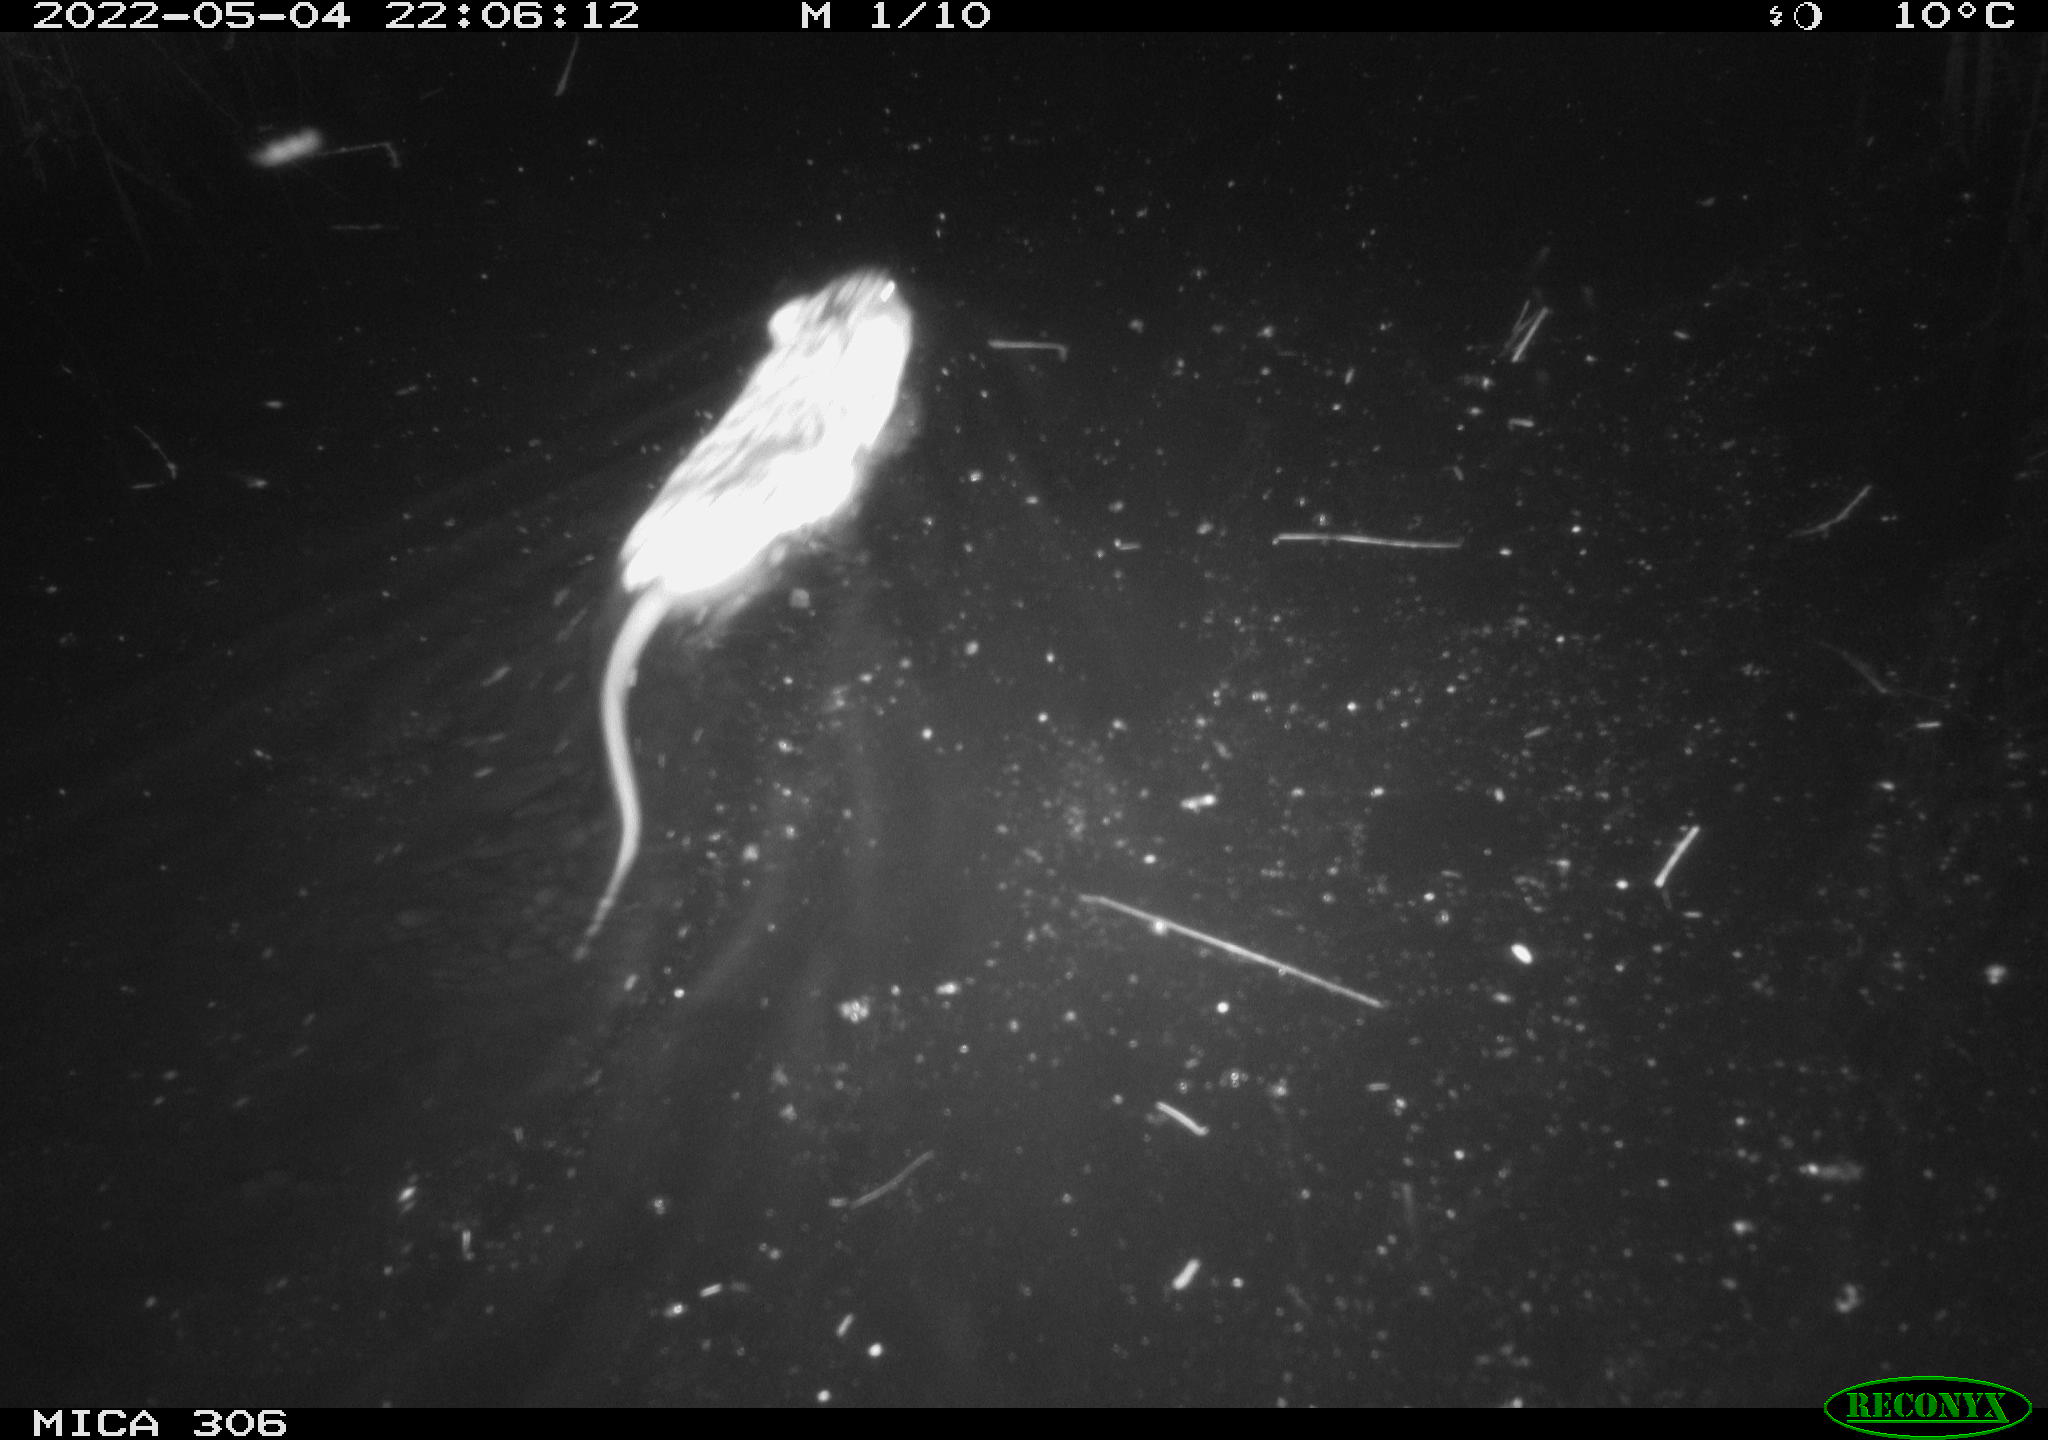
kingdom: Animalia
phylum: Chordata
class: Mammalia
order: Rodentia
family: Cricetidae
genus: Ondatra
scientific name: Ondatra zibethicus
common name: Muskrat
